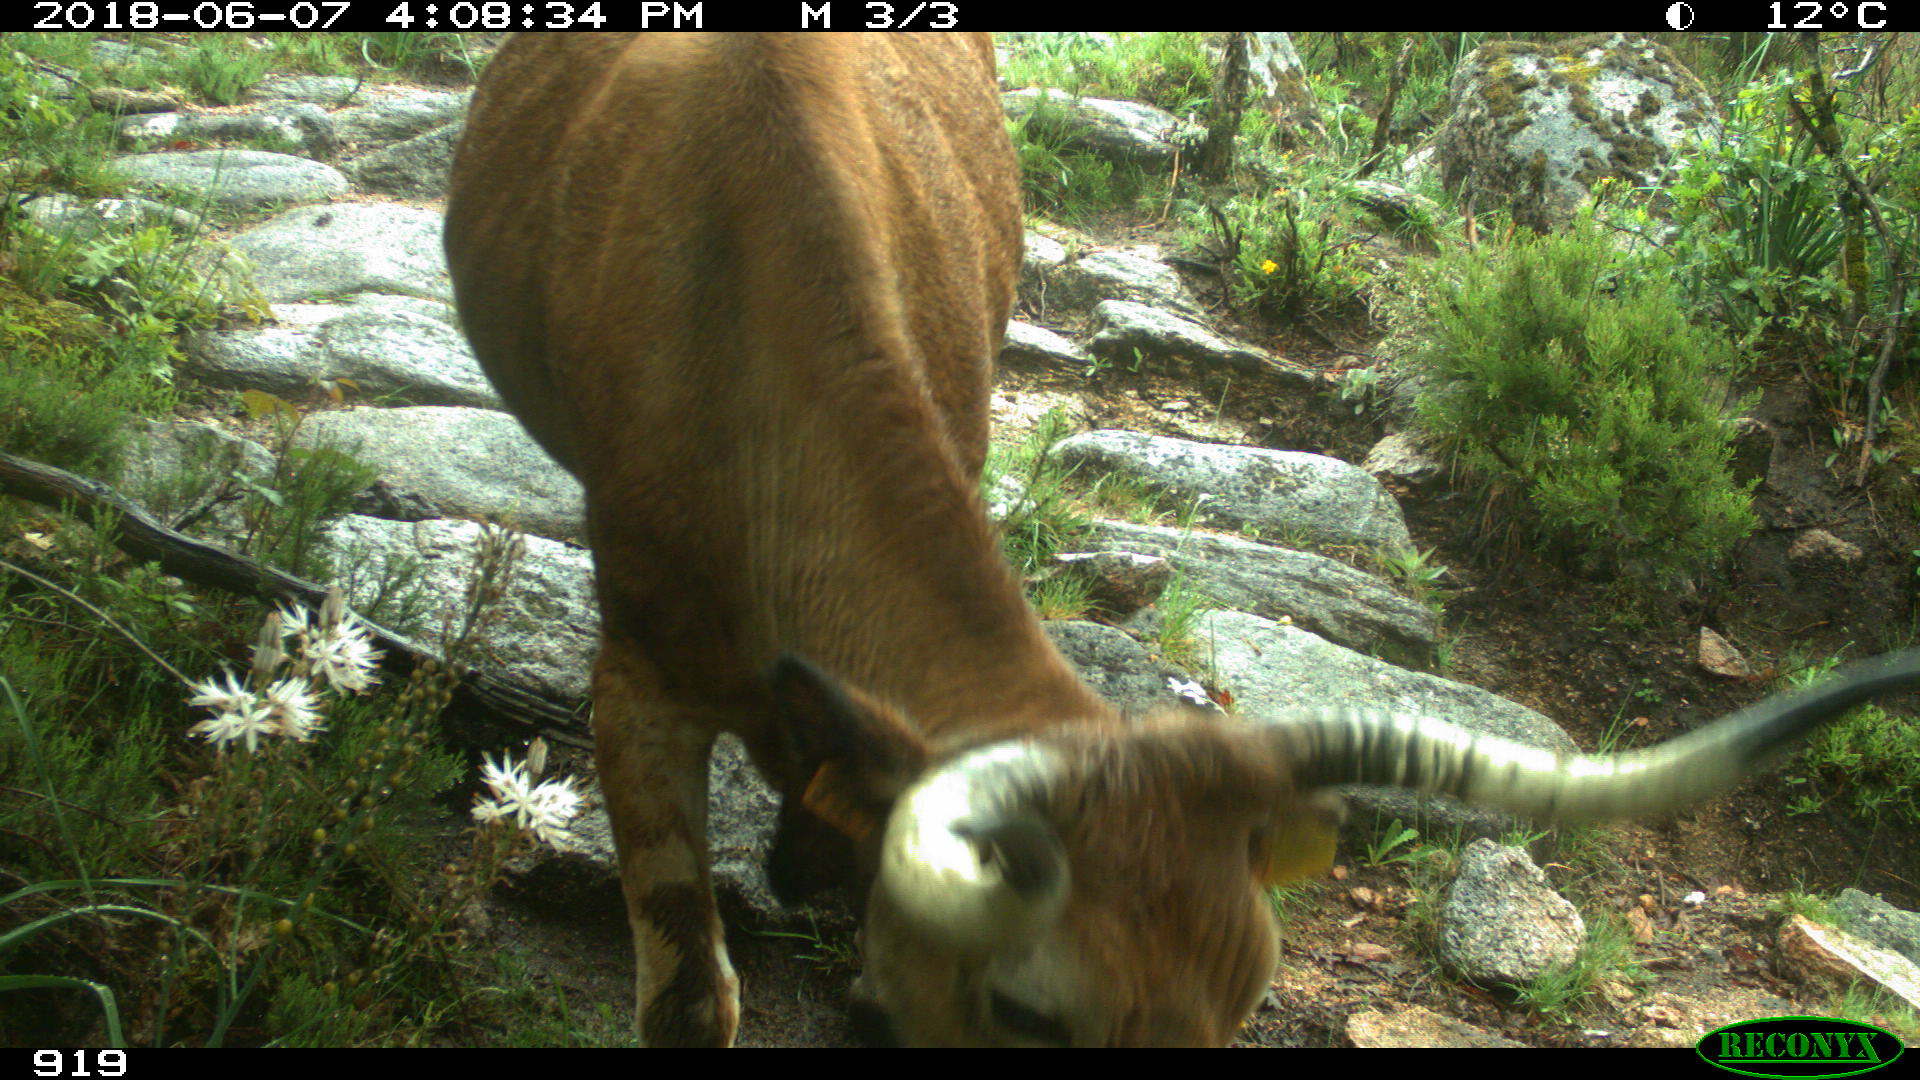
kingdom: Animalia
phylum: Chordata
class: Mammalia
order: Artiodactyla
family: Bovidae
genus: Bos
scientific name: Bos taurus
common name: Domesticated cattle
